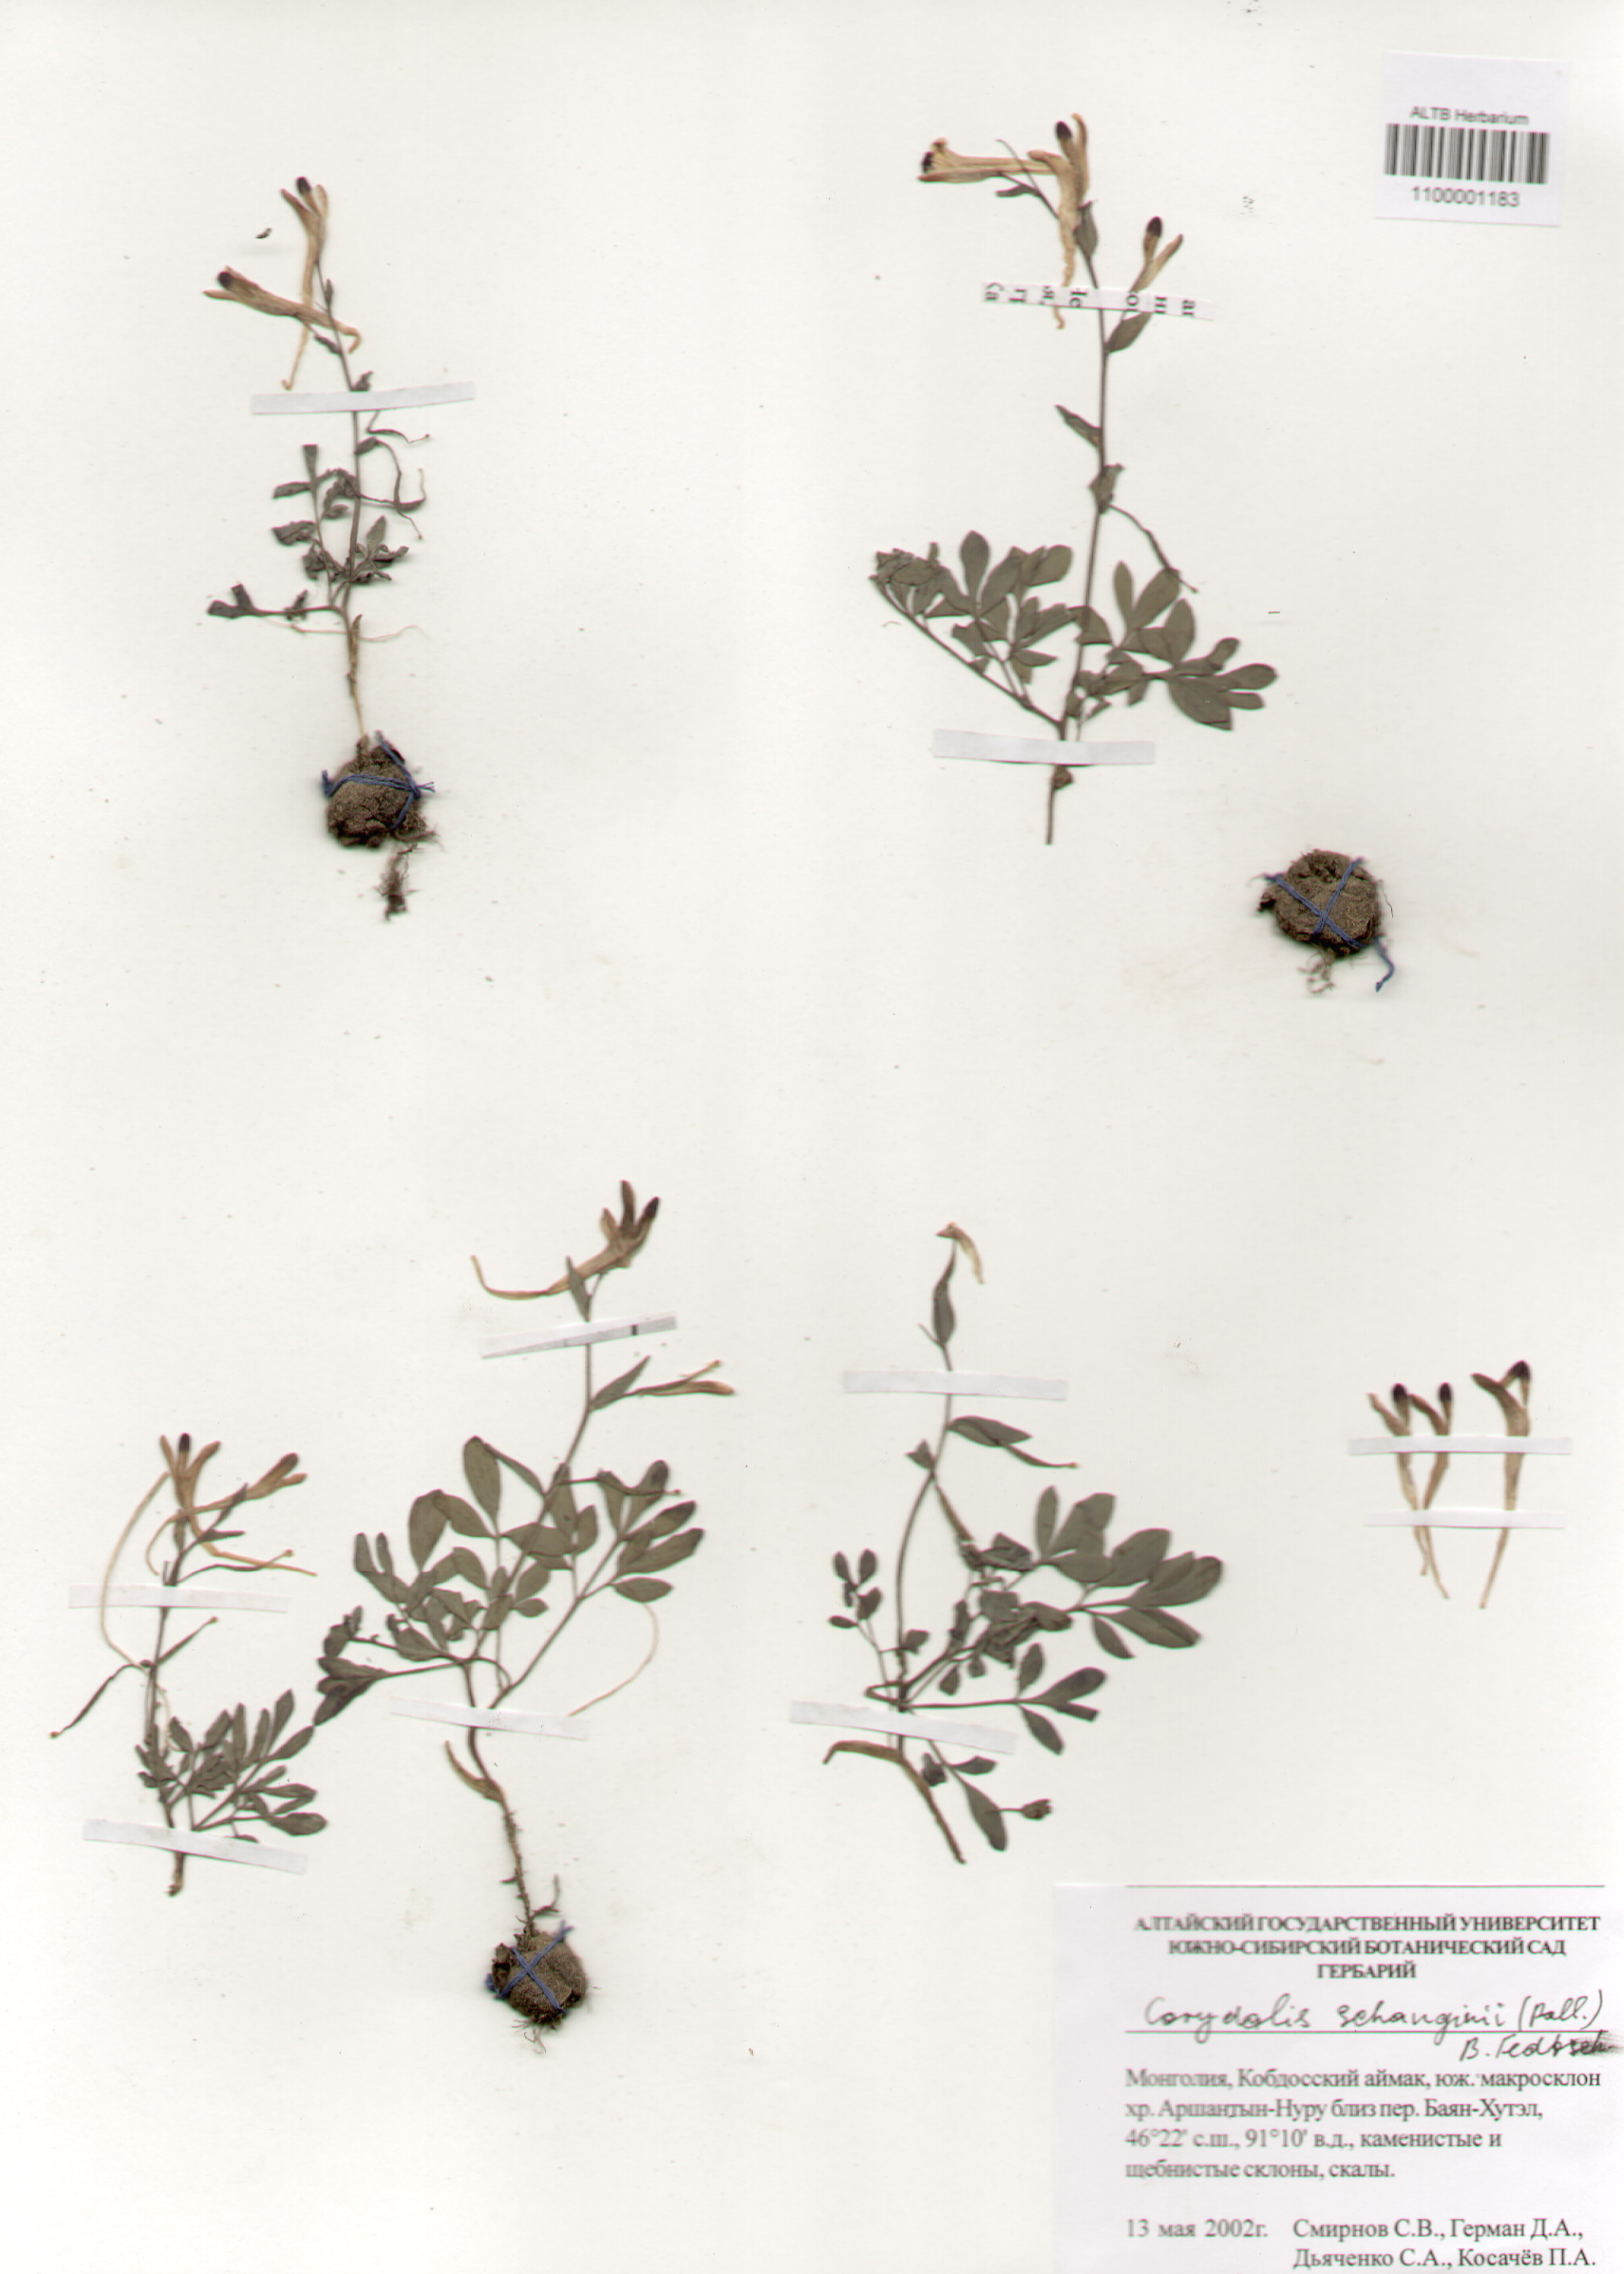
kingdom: Plantae
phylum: Tracheophyta
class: Magnoliopsida
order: Ranunculales
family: Papaveraceae
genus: Corydalis
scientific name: Corydalis schanginii
